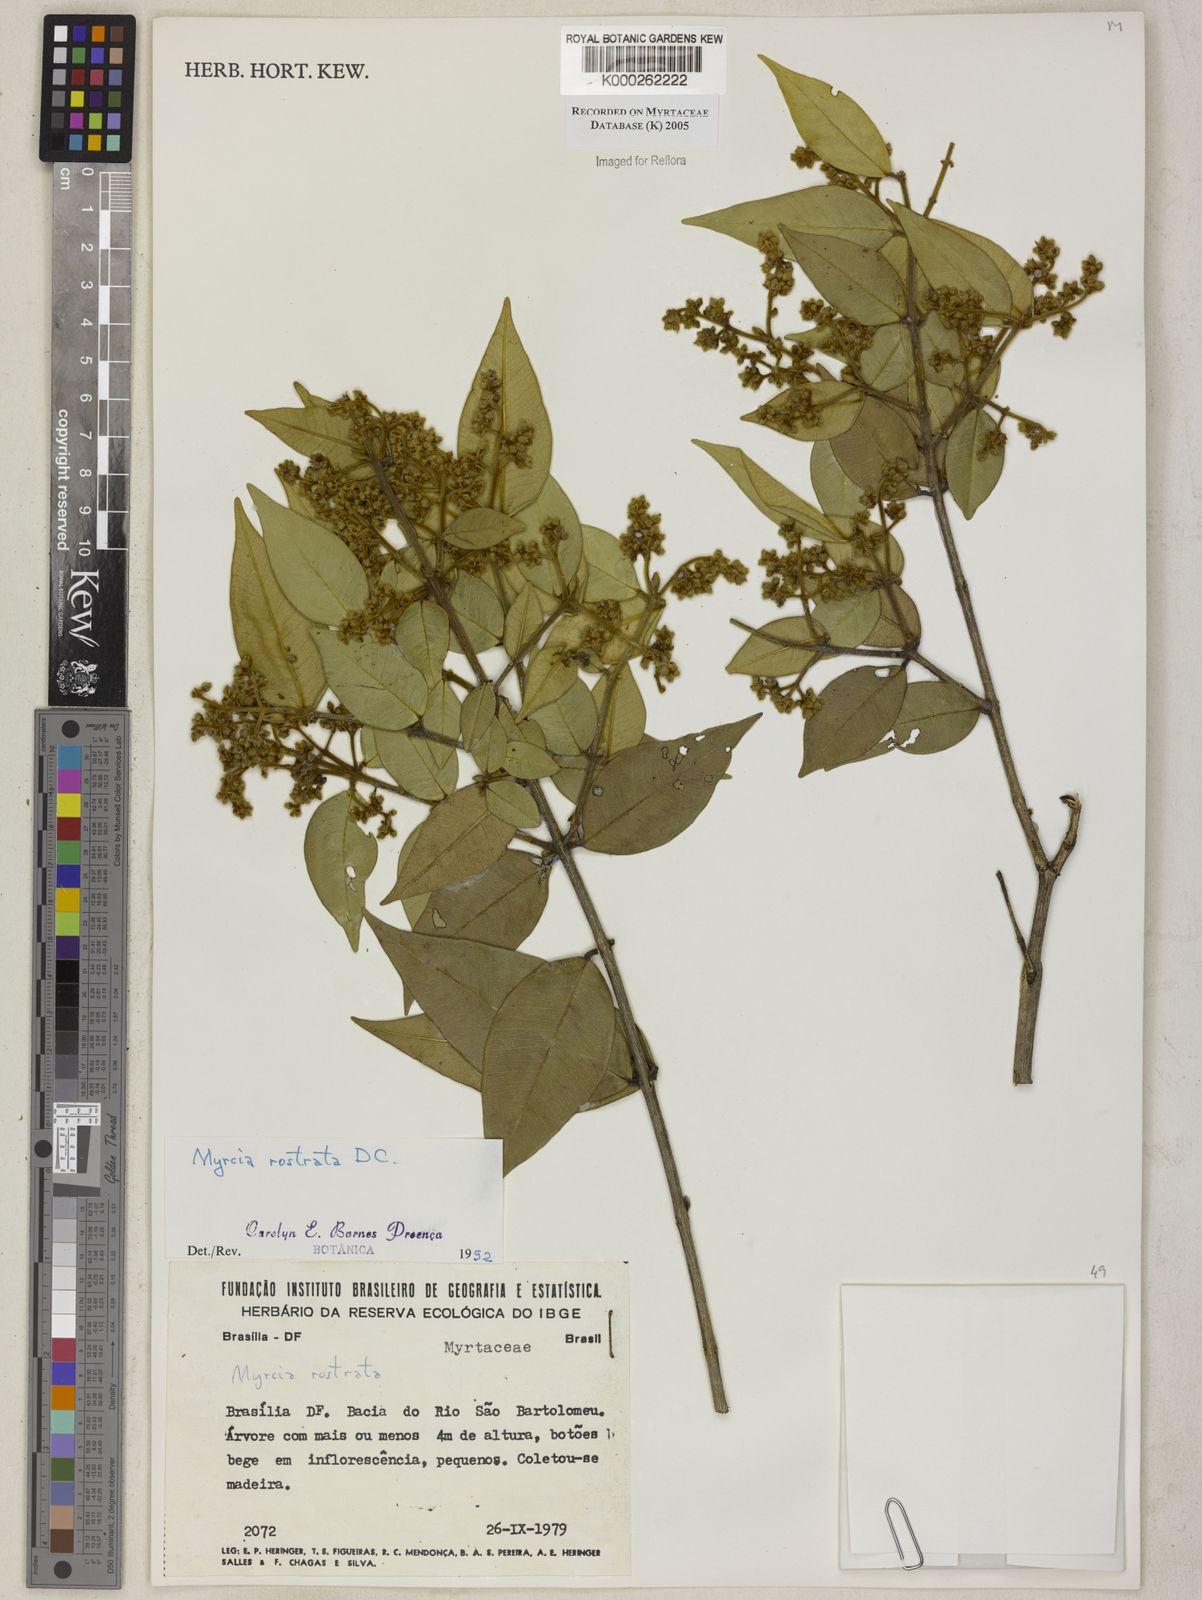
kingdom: Plantae
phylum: Tracheophyta
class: Magnoliopsida
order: Myrtales
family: Myrtaceae
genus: Myrcia
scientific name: Myrcia splendens
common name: Surinam cherry
